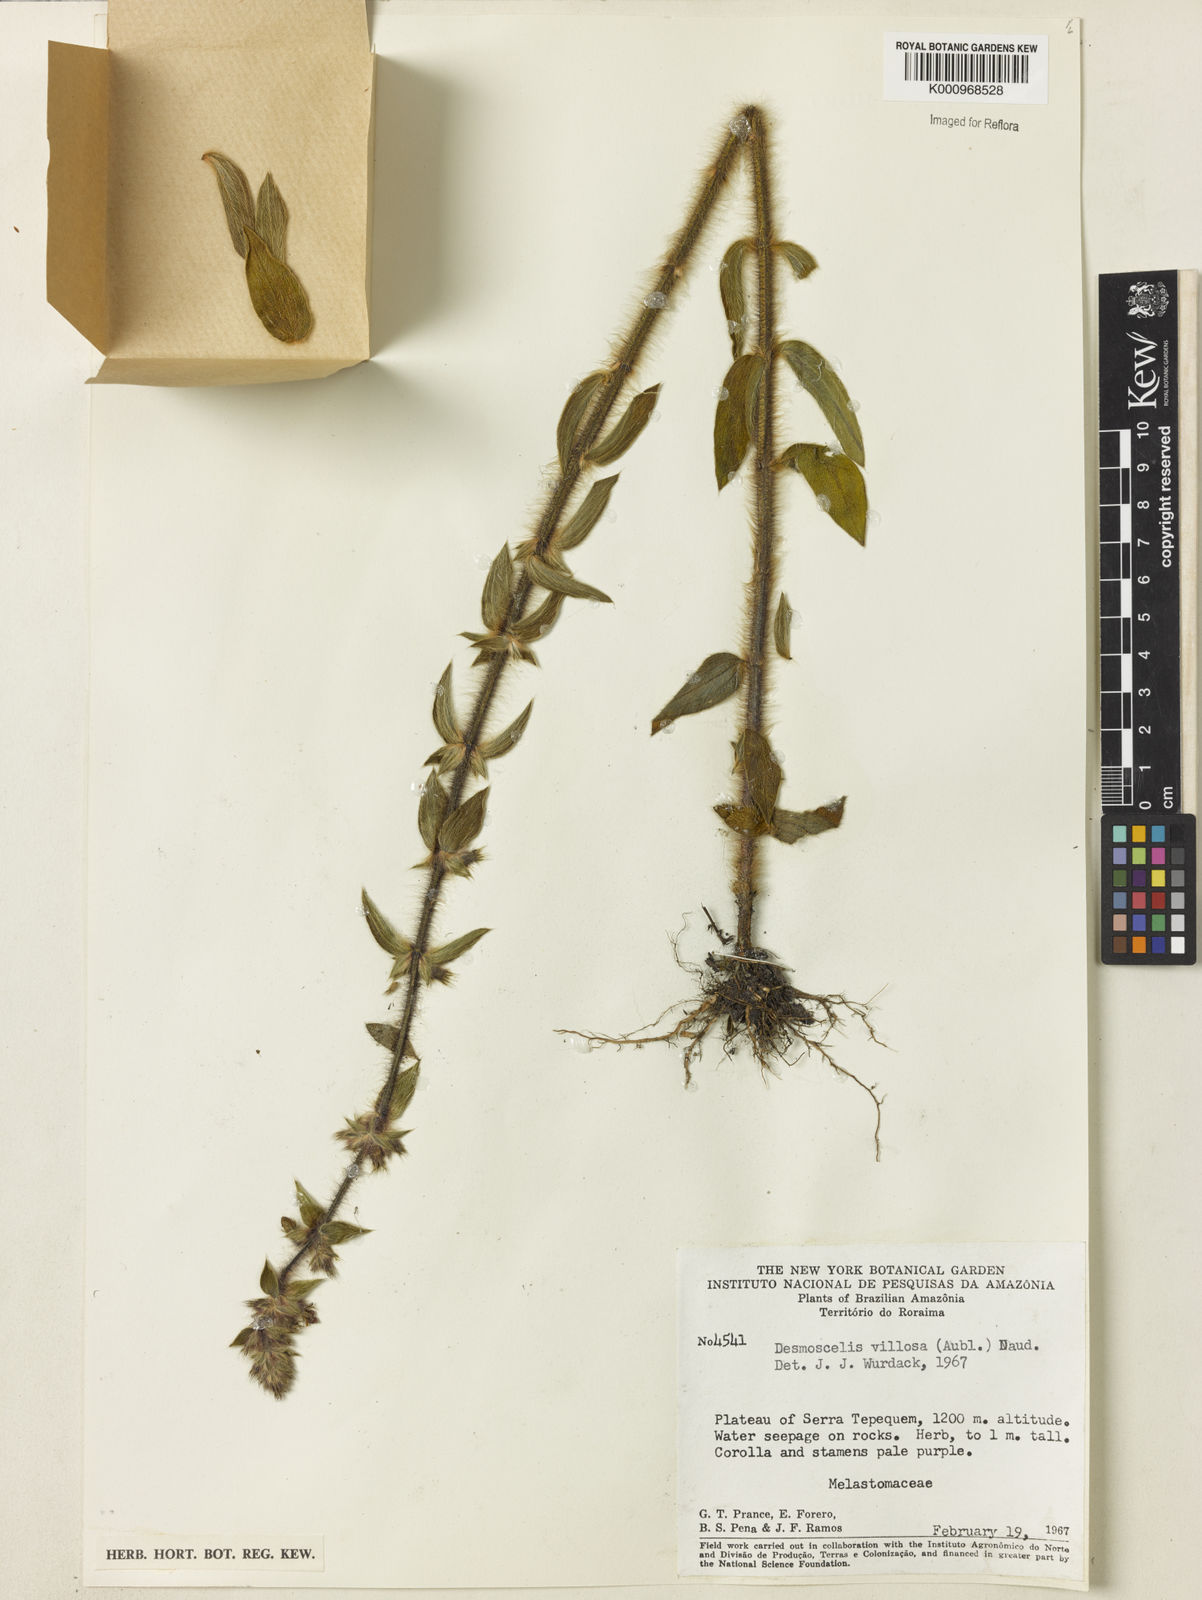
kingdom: Plantae
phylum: Tracheophyta
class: Magnoliopsida
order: Myrtales
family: Melastomataceae
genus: Desmoscelis
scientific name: Desmoscelis villosa
